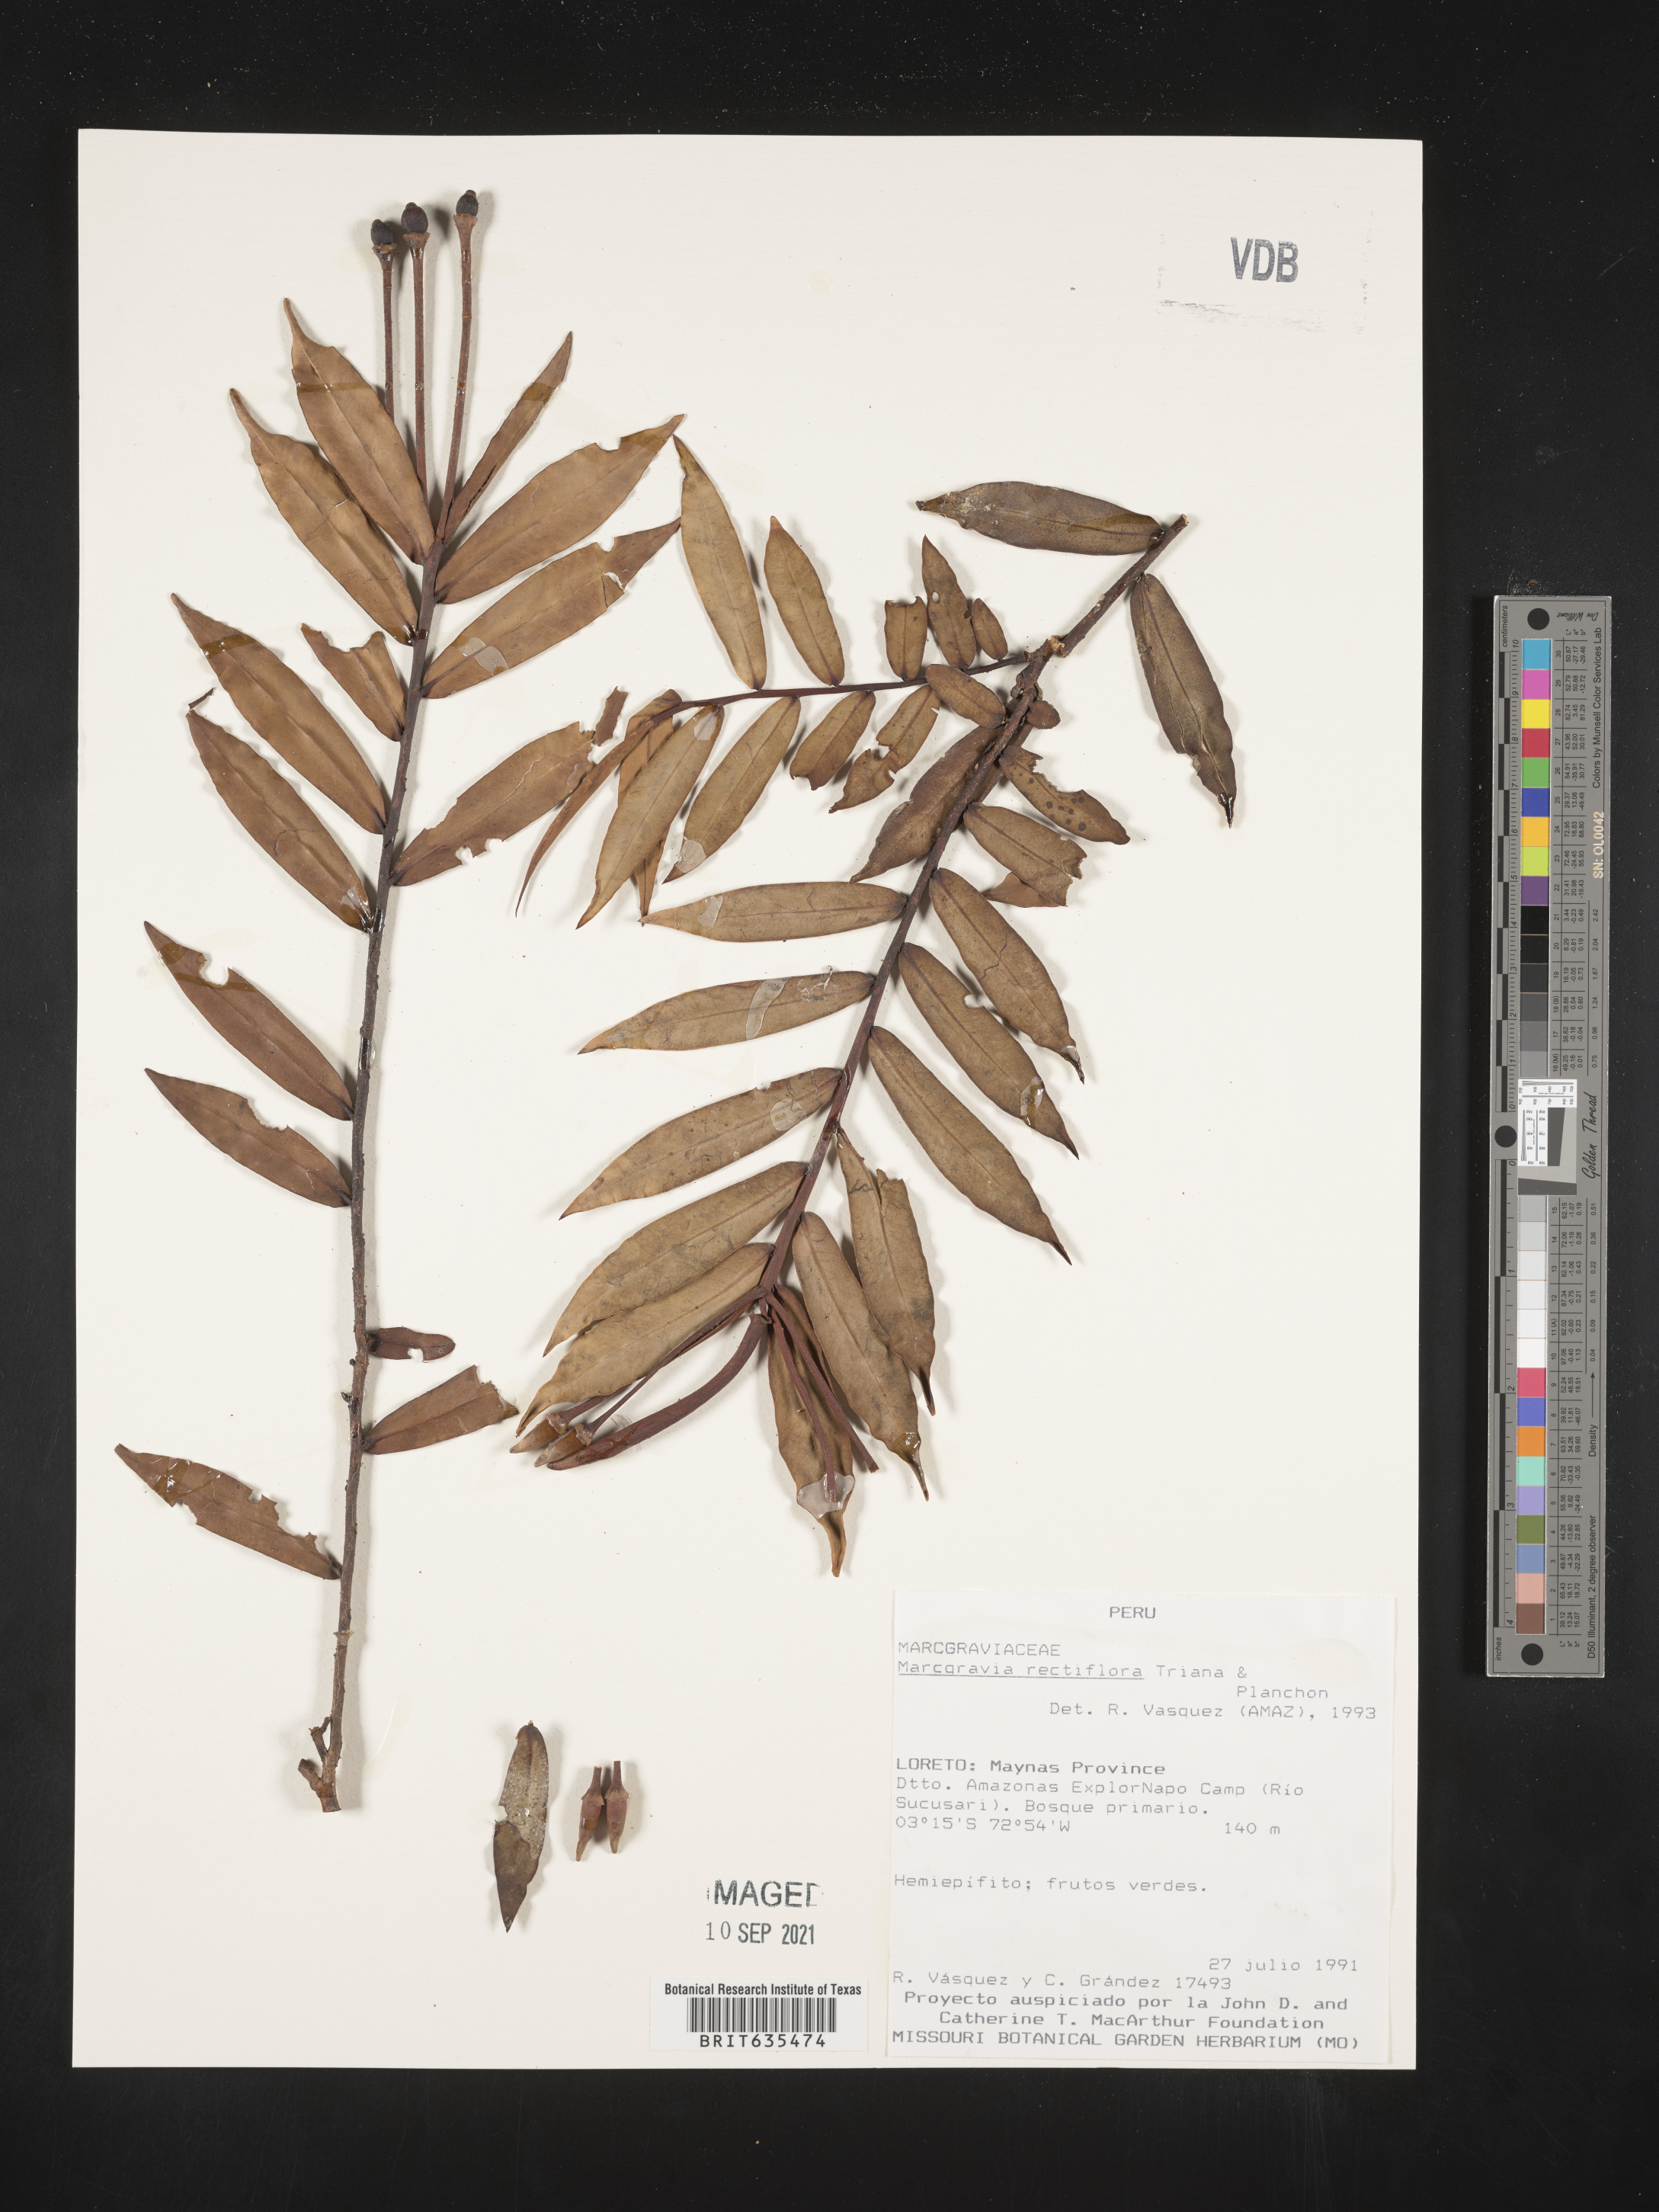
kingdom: Plantae
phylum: Tracheophyta
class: Magnoliopsida
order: Ericales
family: Marcgraviaceae
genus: Marcgravia
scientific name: Marcgravia
